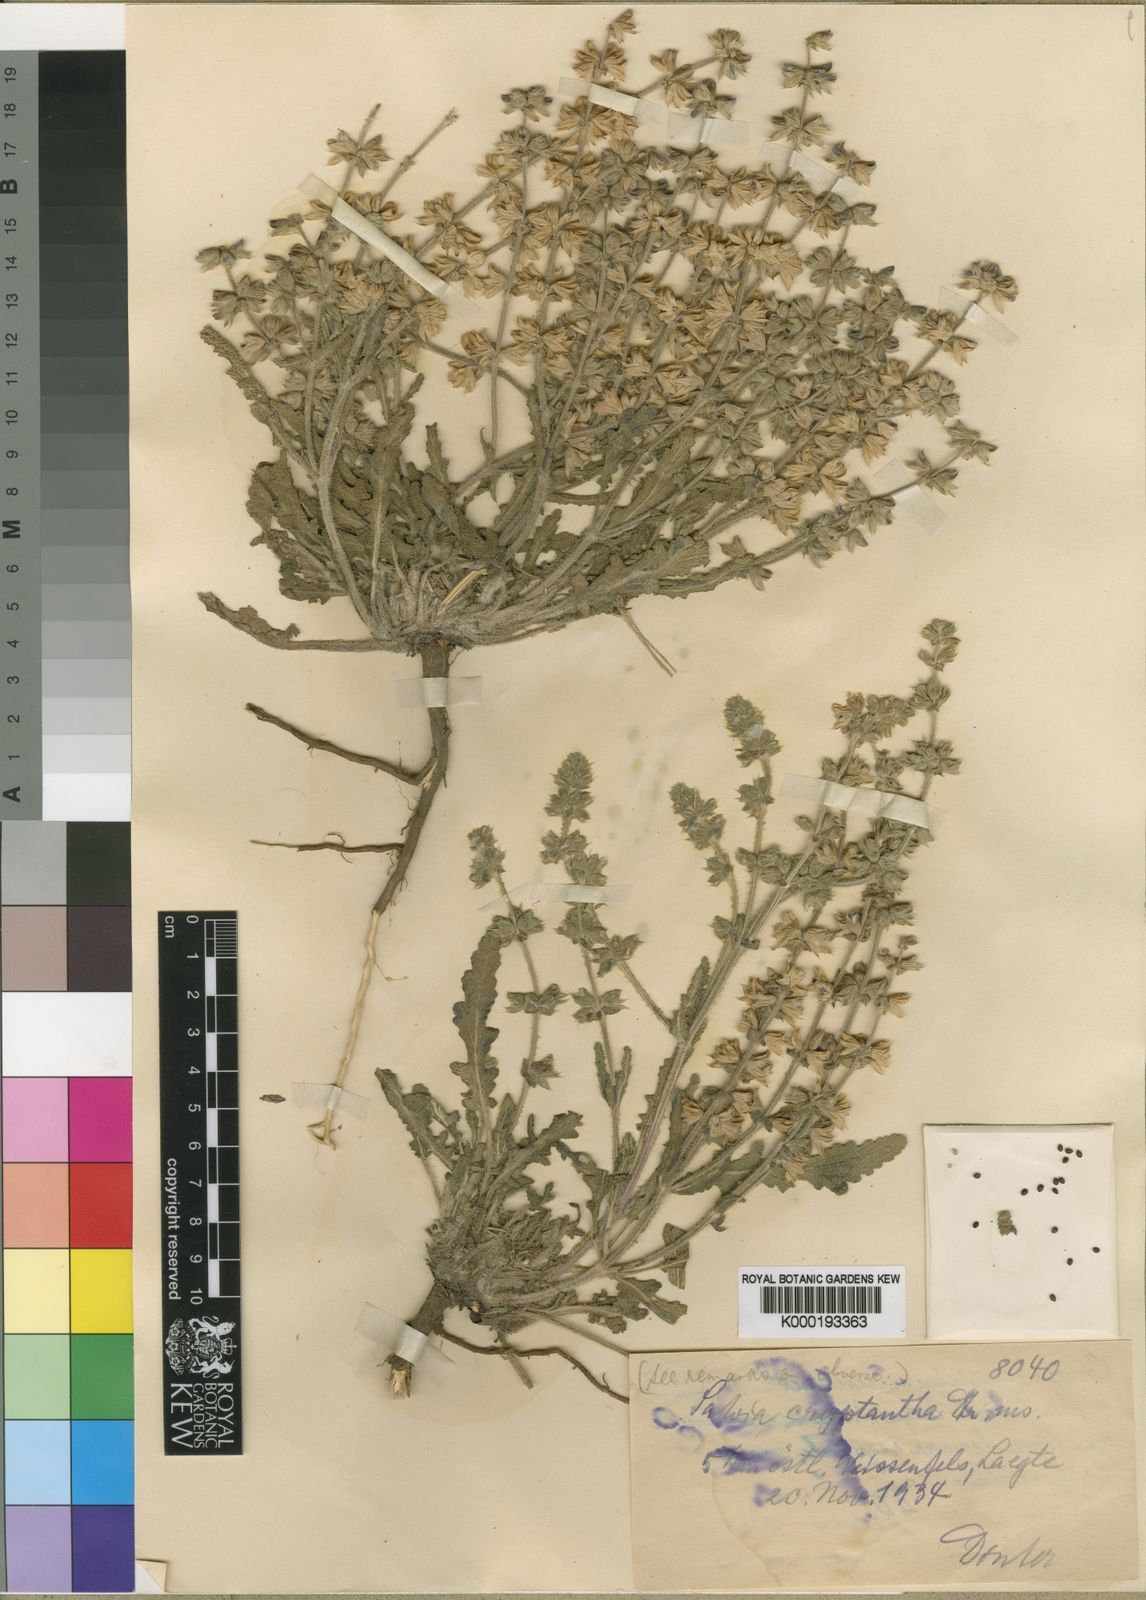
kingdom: Plantae
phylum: Tracheophyta
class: Magnoliopsida
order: Lamiales
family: Lamiaceae
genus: Salvia
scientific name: Salvia
